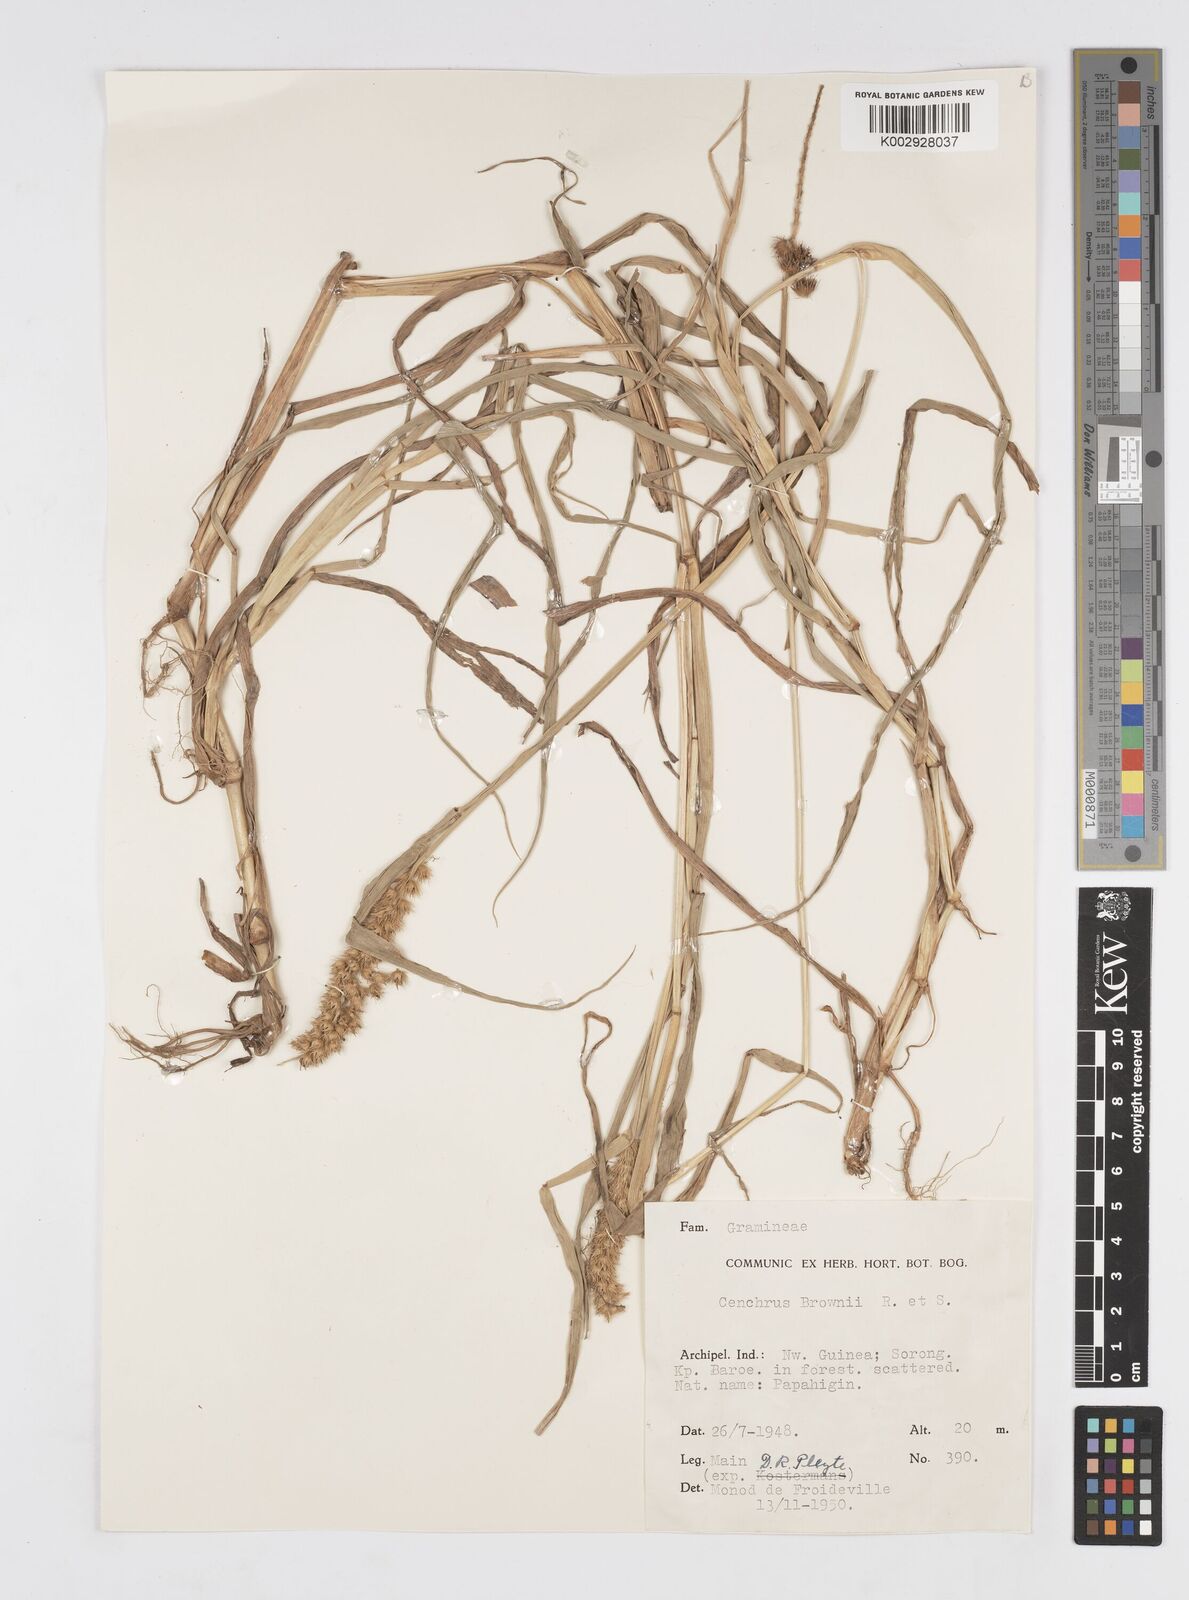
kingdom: Plantae
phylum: Tracheophyta
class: Liliopsida
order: Poales
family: Poaceae
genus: Cenchrus
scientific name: Cenchrus brownii
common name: Slim-bristle sandbur
